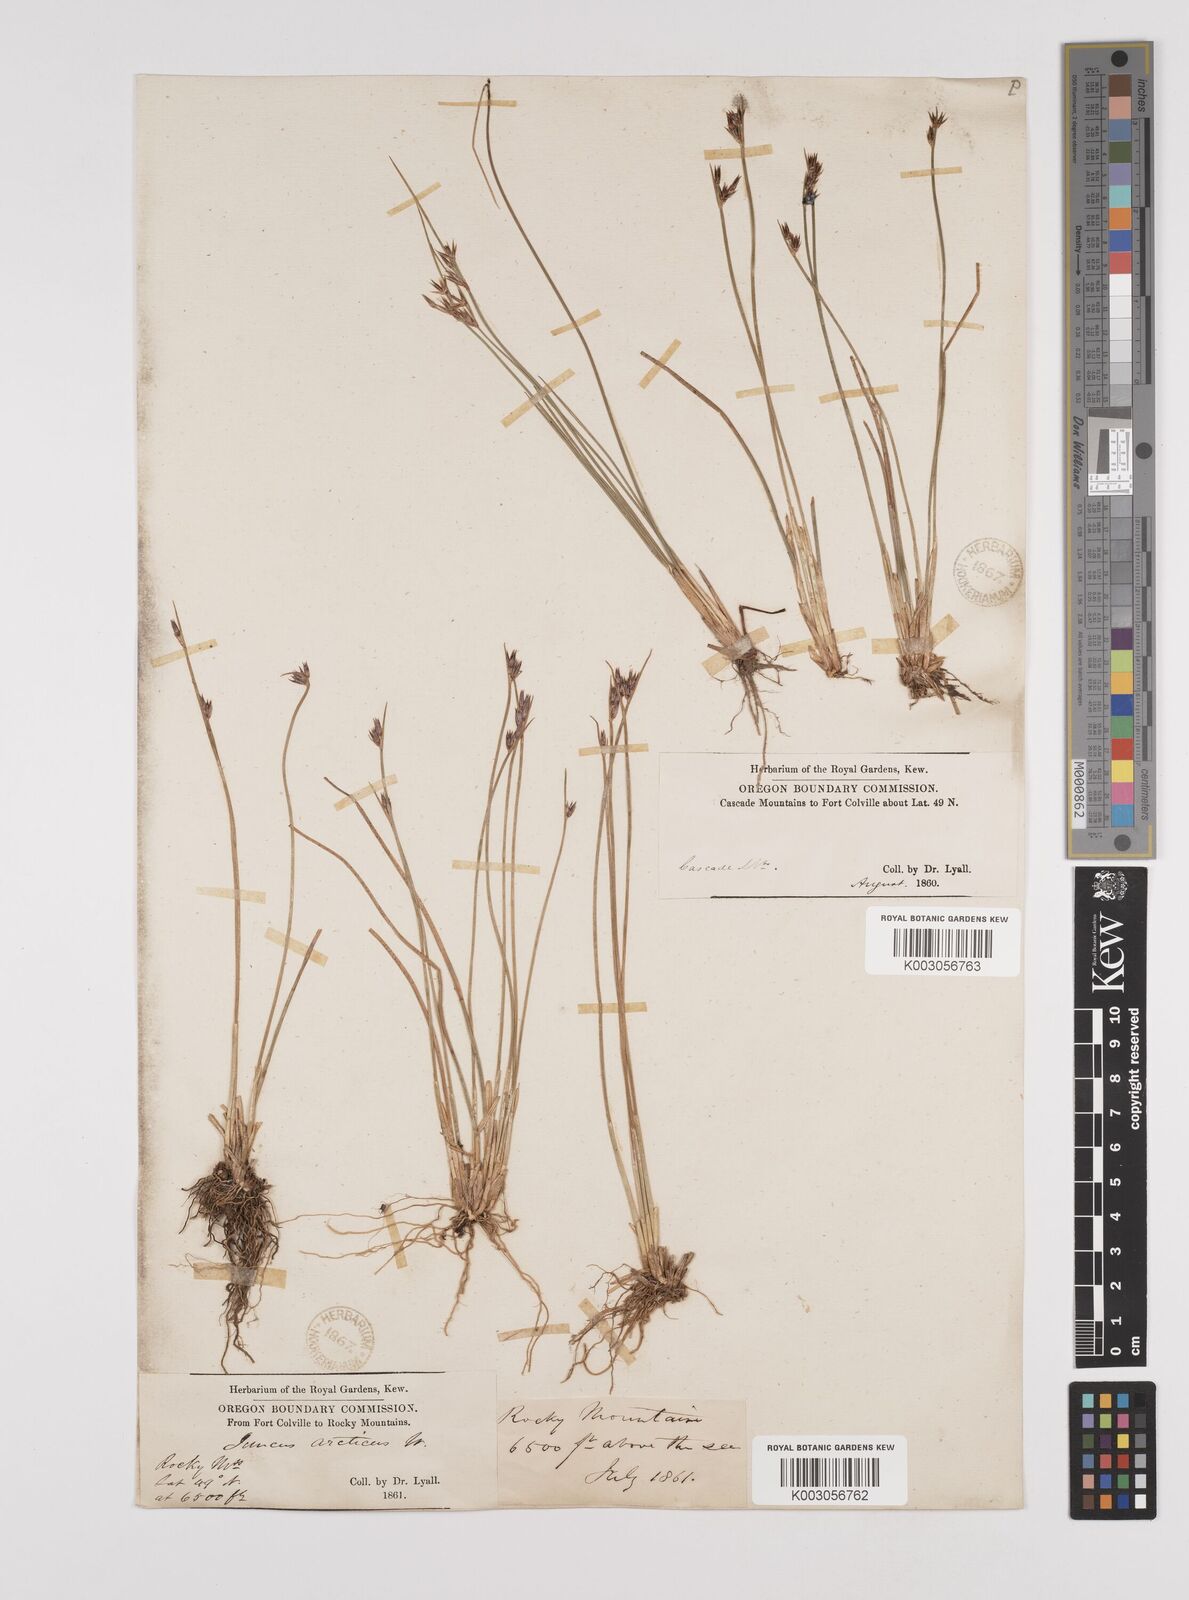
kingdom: Plantae
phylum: Tracheophyta
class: Liliopsida
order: Poales
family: Juncaceae
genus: Juncus
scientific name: Juncus drummondii
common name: Drummond's rush
